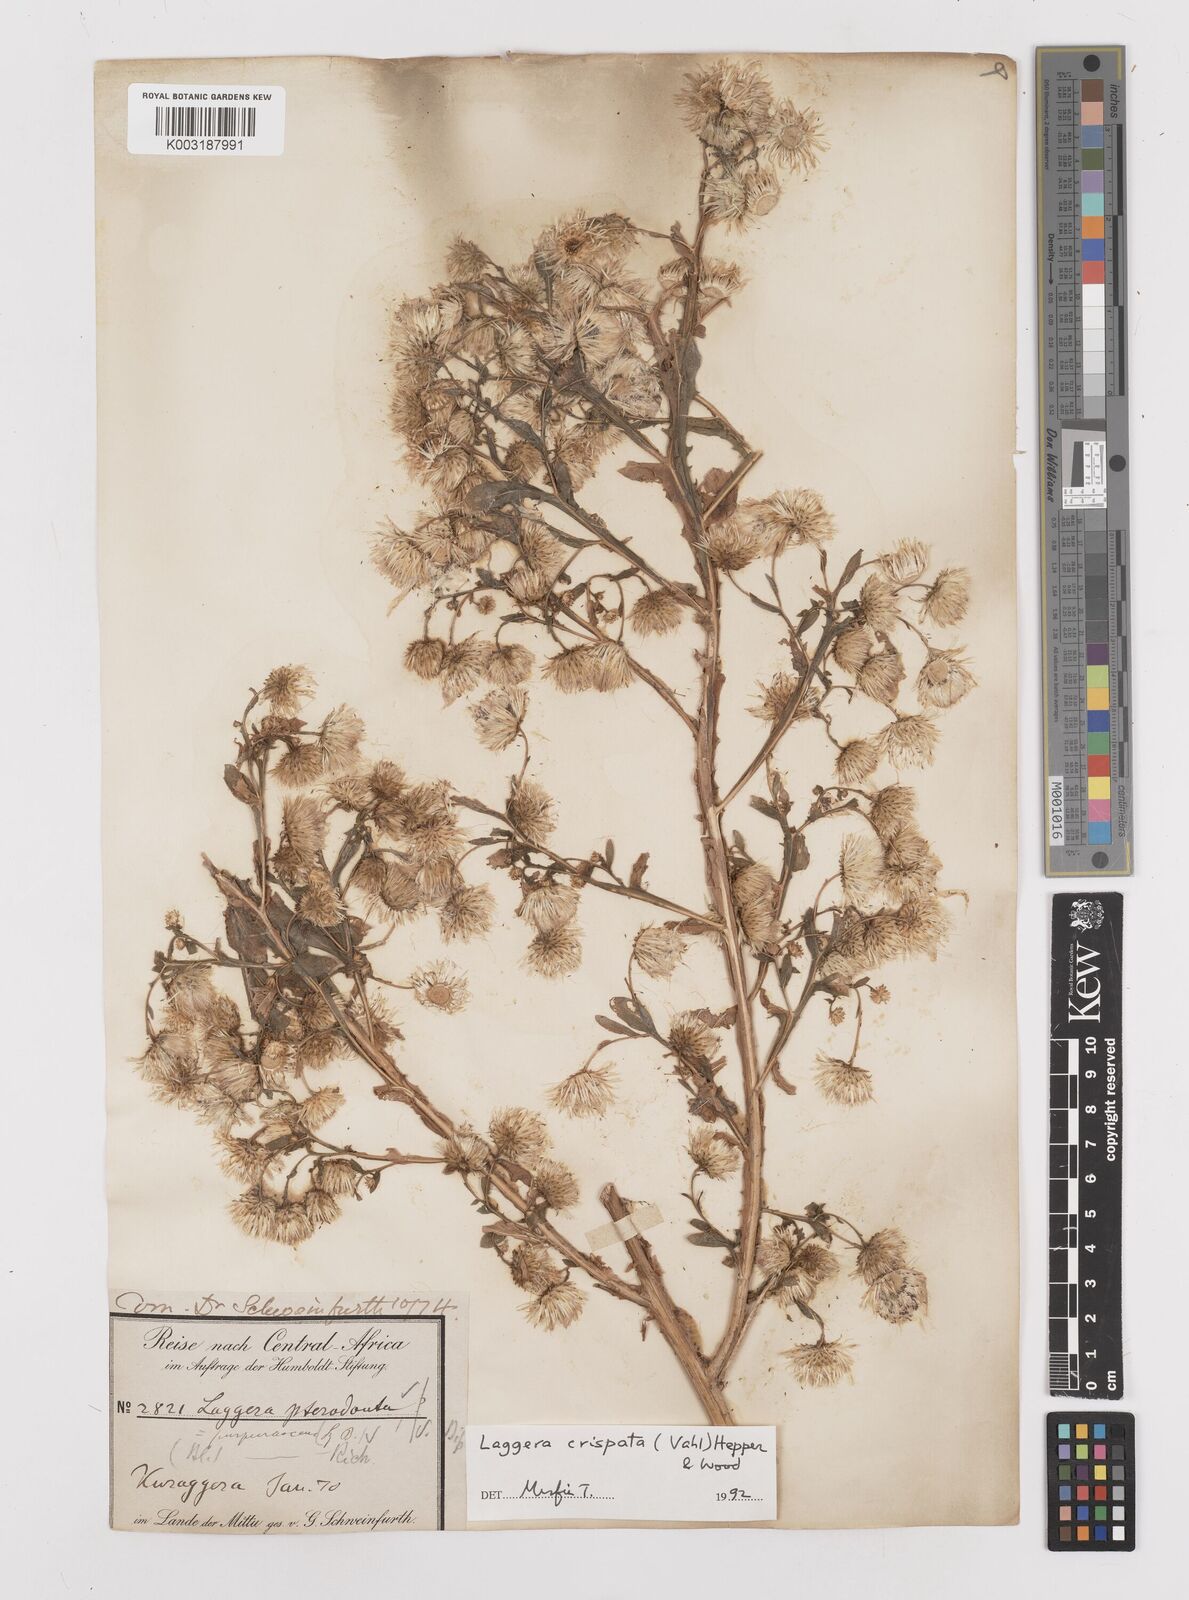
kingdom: Plantae
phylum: Tracheophyta
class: Magnoliopsida
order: Asterales
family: Asteraceae
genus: Laggera
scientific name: Laggera crispata
